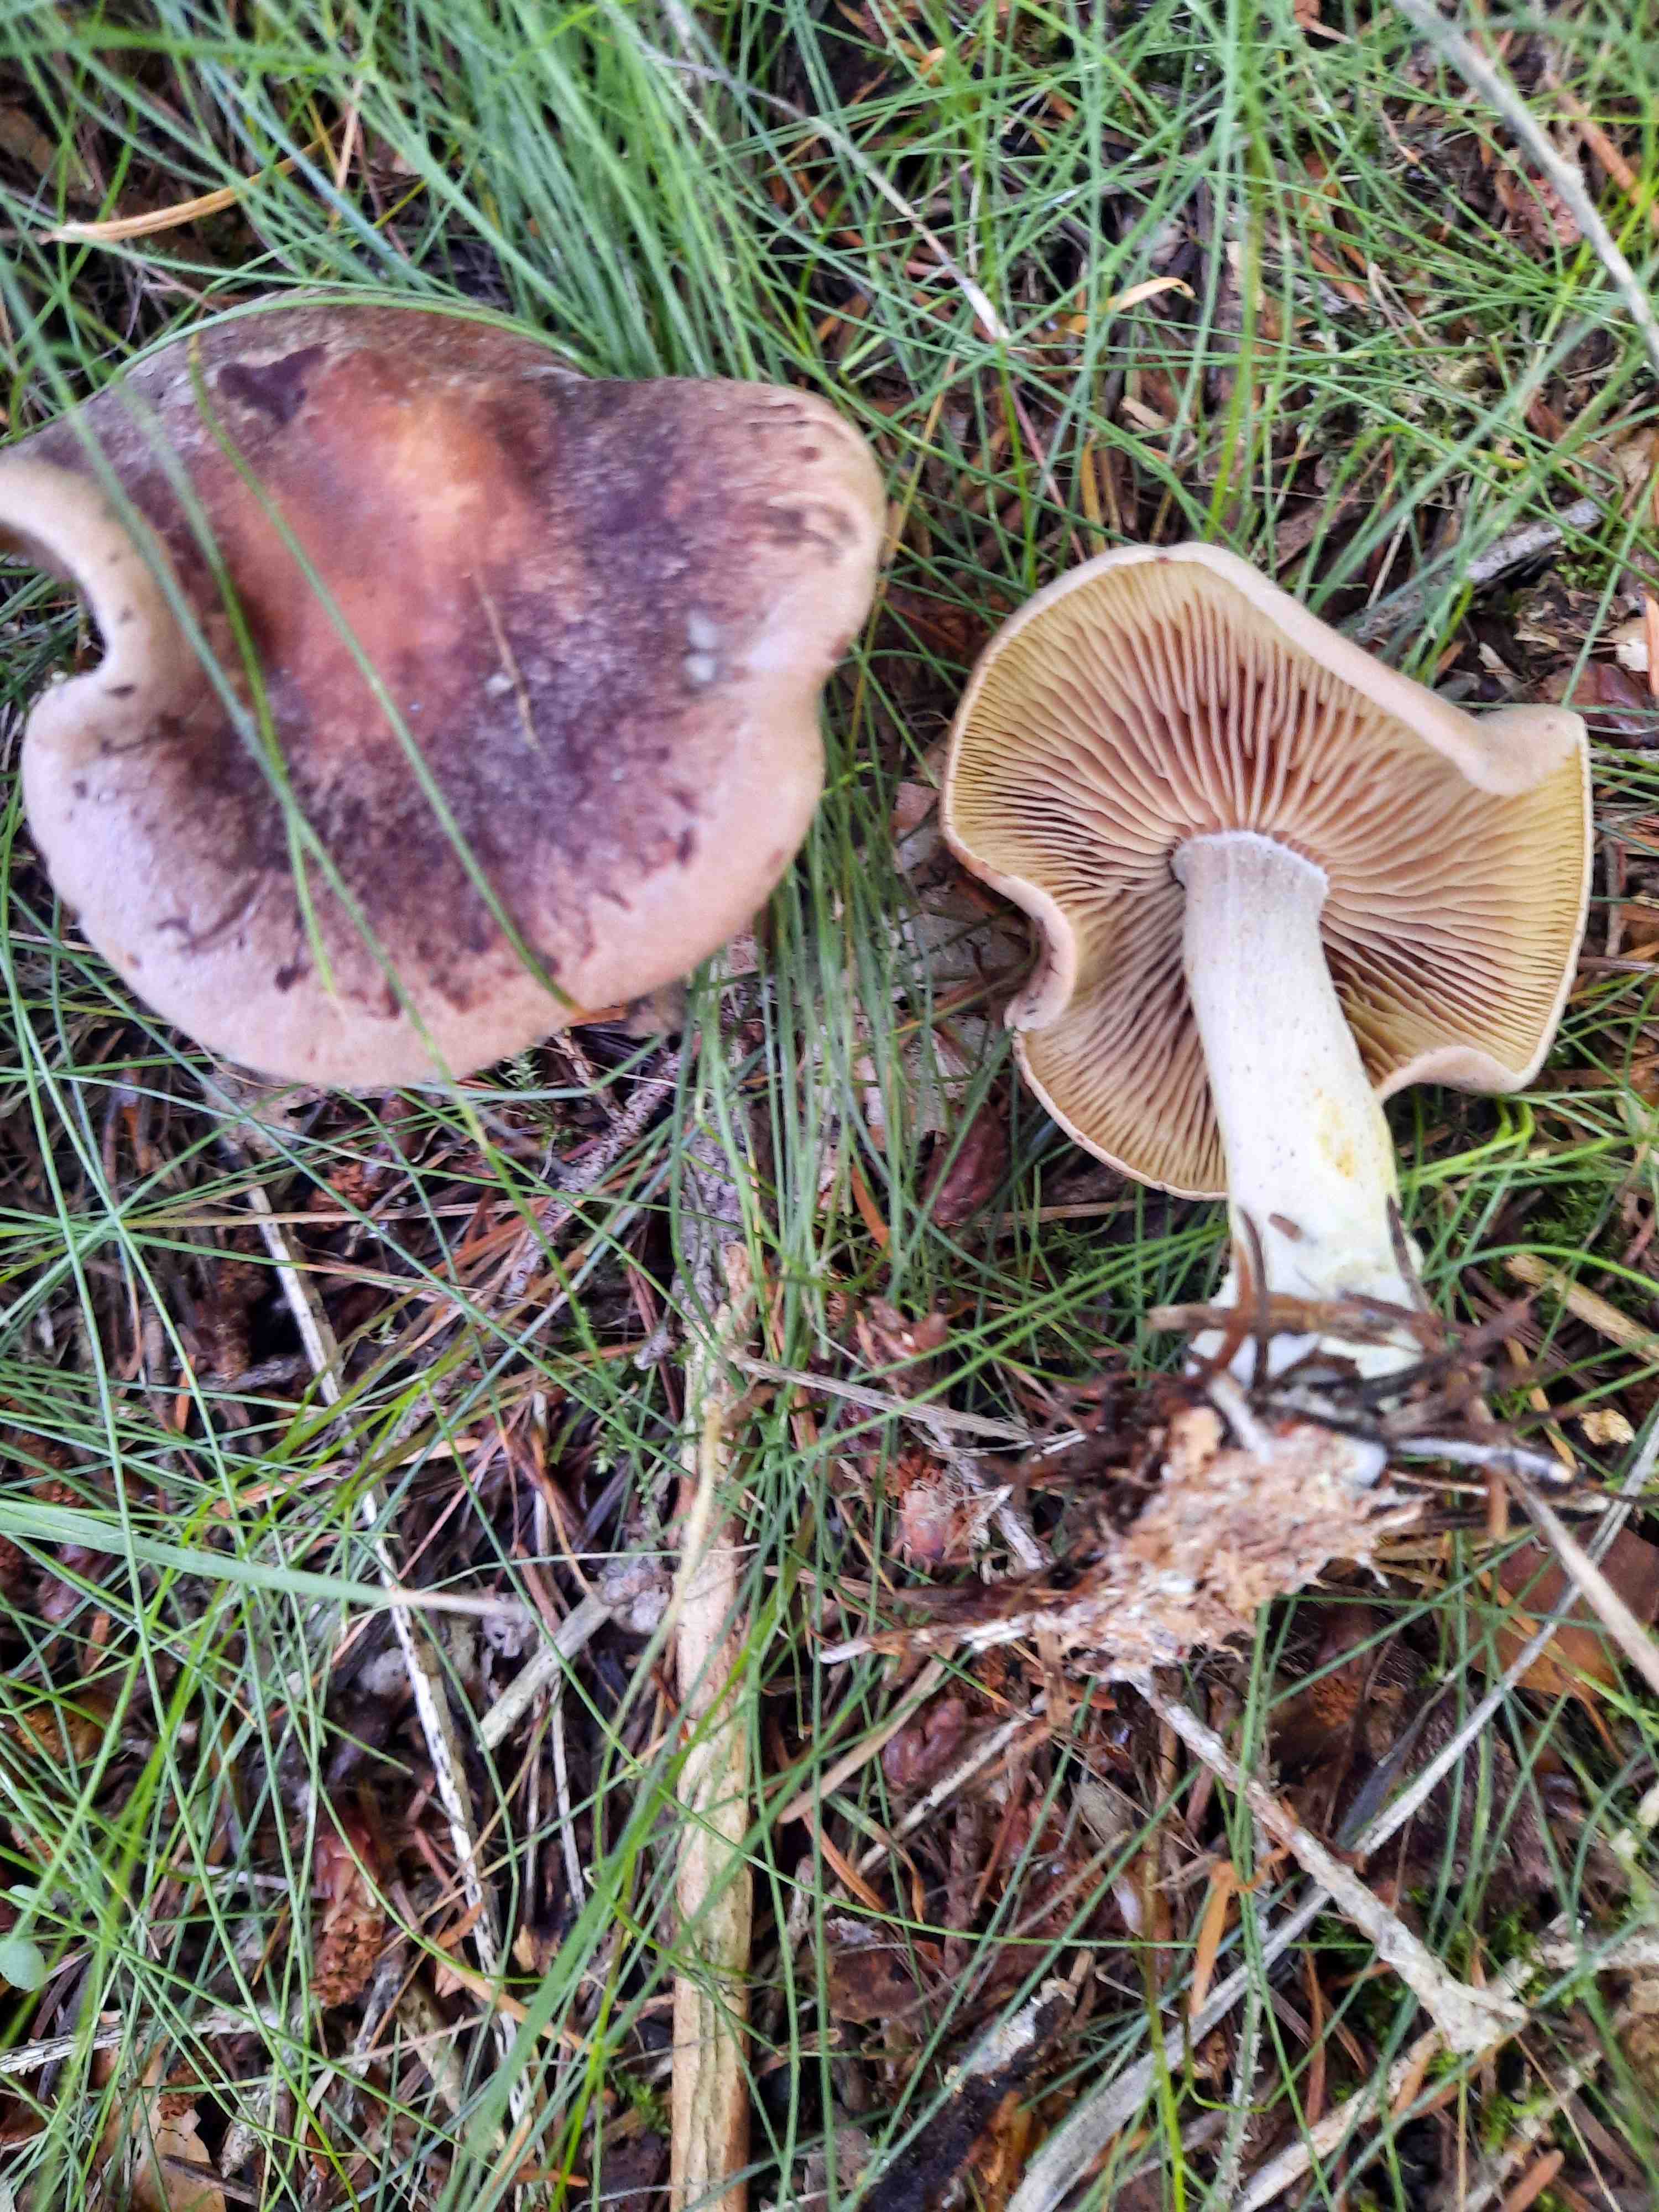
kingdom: Fungi
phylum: Basidiomycota
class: Agaricomycetes
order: Agaricales
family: Tricholomataceae
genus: Tricholomopsis
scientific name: Tricholomopsis rutilans
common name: purpur-væbnerhat
